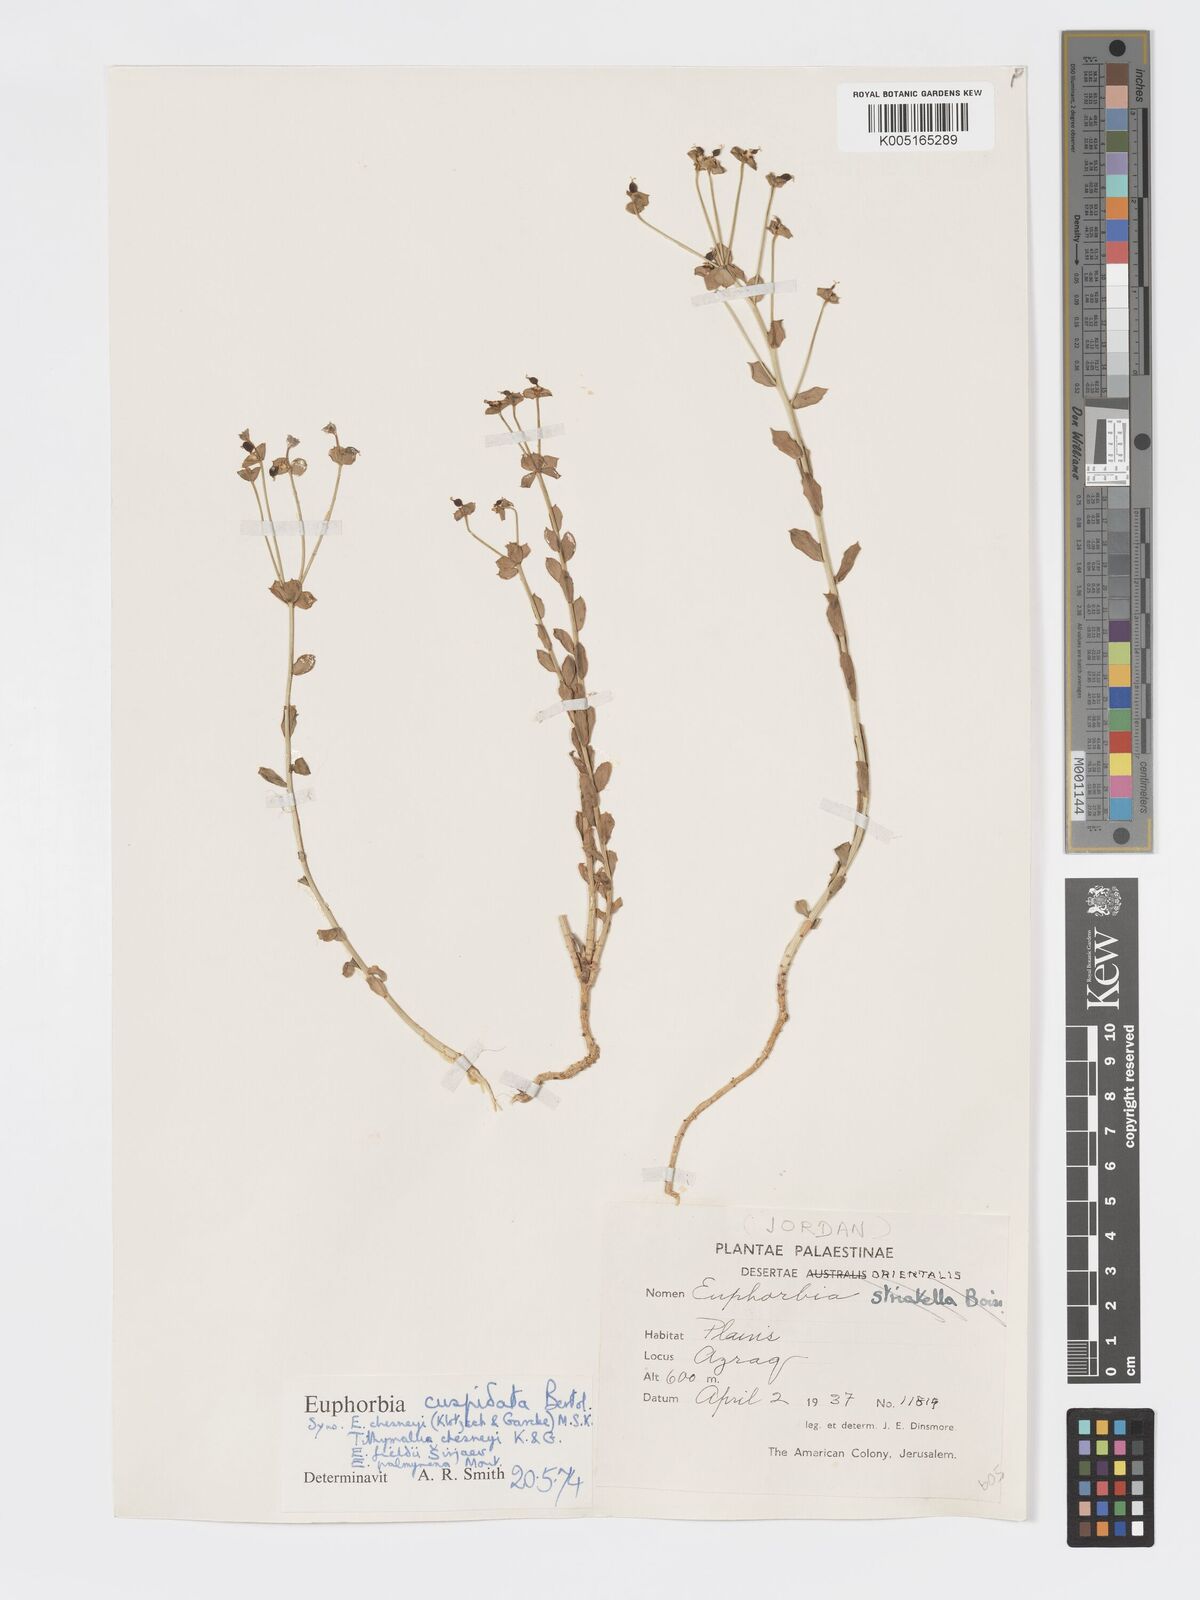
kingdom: Plantae
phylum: Tracheophyta
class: Magnoliopsida
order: Malpighiales
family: Euphorbiaceae
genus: Euphorbia
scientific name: Euphorbia
